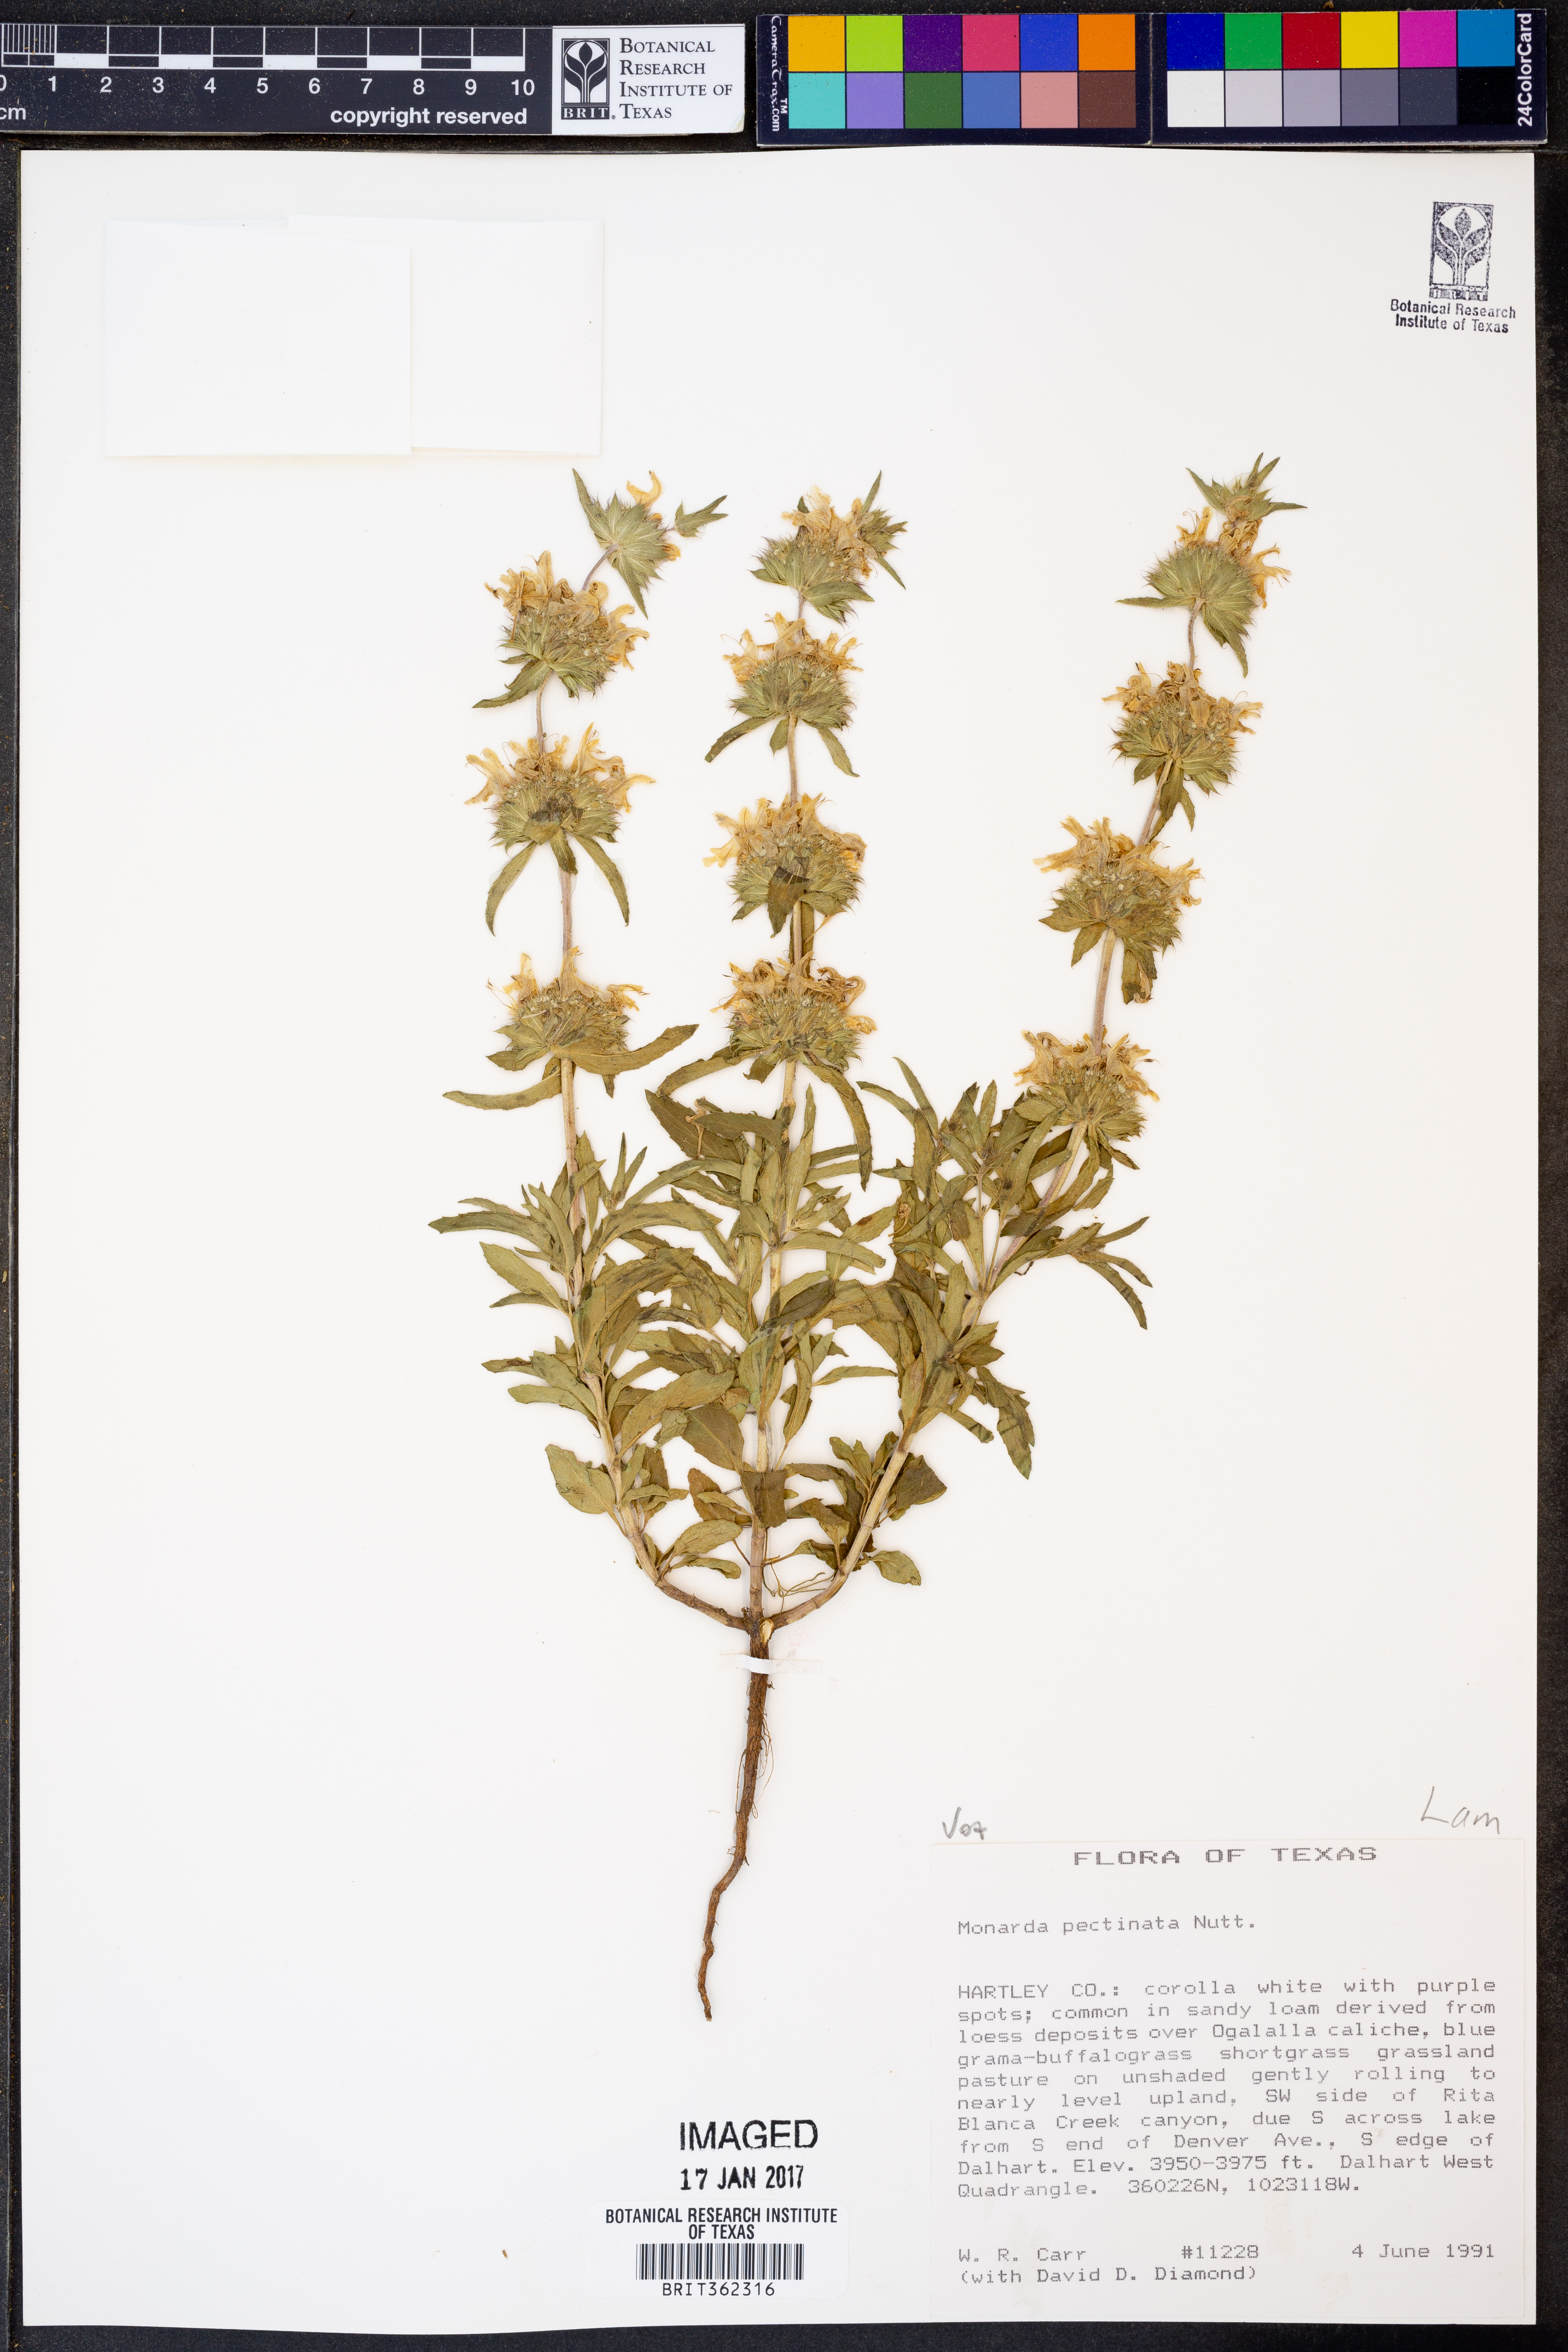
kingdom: Plantae
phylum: Tracheophyta
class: Magnoliopsida
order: Lamiales
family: Lamiaceae
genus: Monarda
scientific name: Monarda pectinata
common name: Plains beebalm
